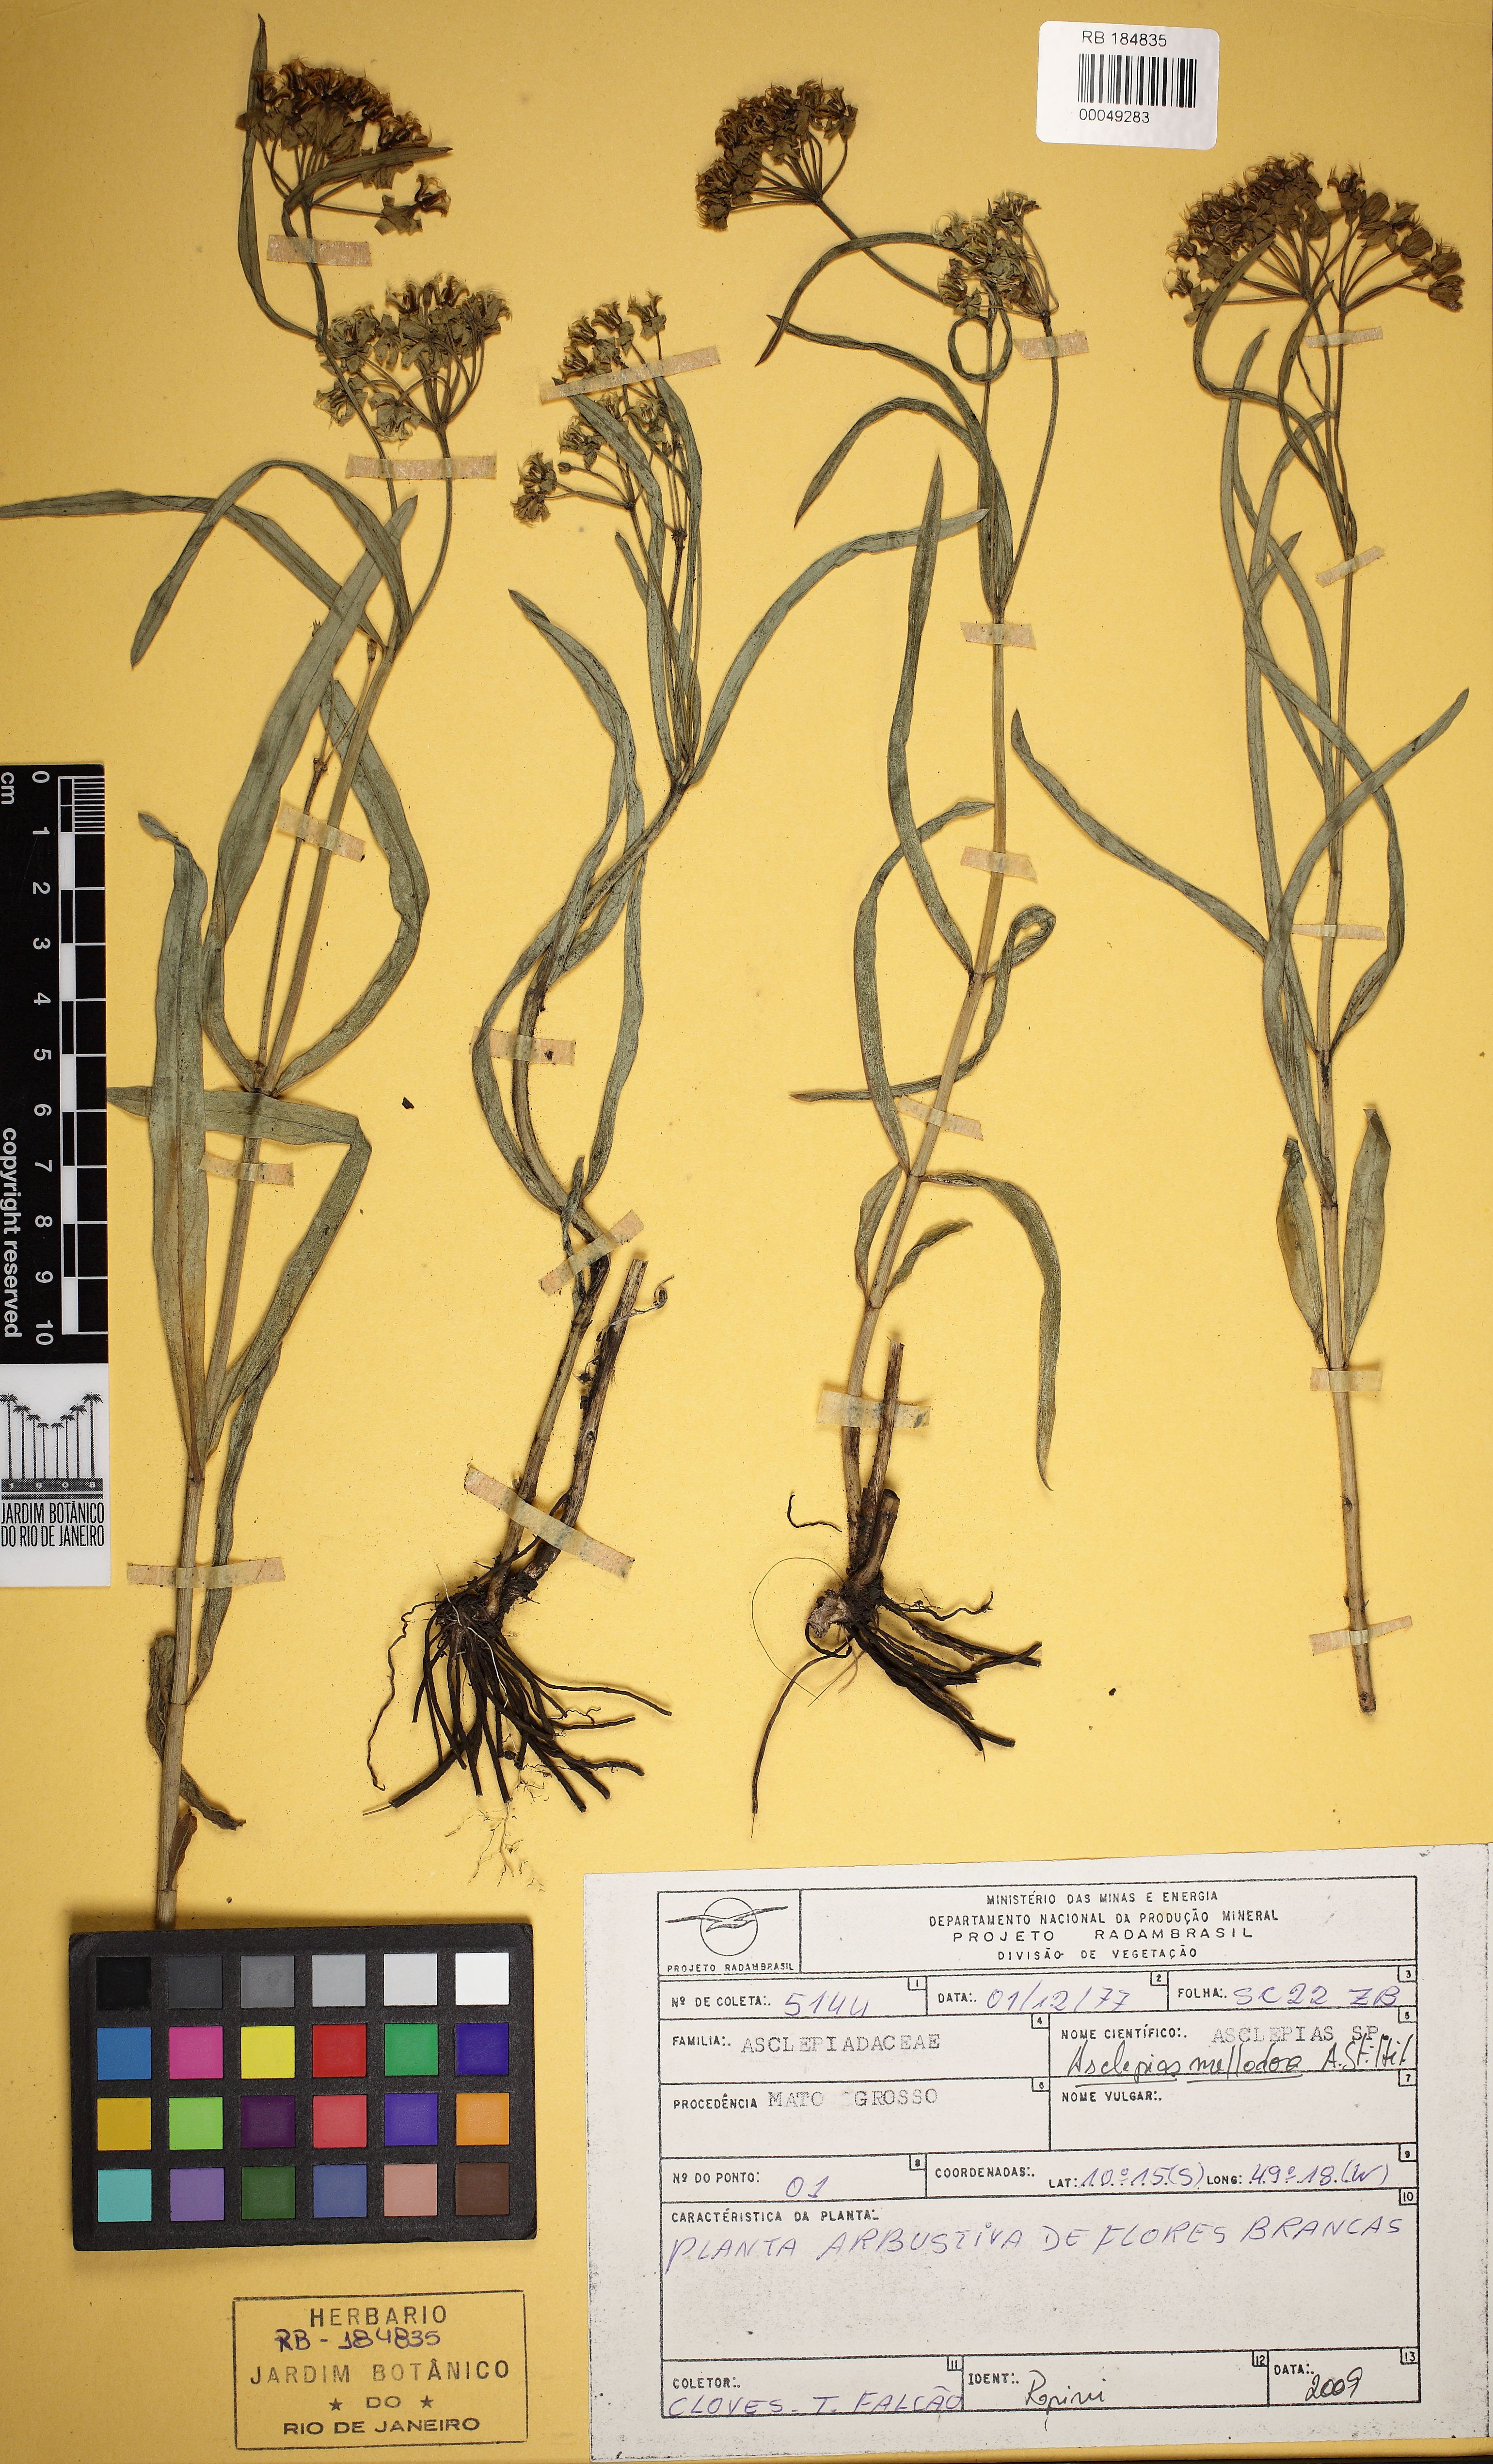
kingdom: Plantae
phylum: Tracheophyta
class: Magnoliopsida
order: Gentianales
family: Apocynaceae
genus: Asclepias
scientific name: Asclepias mellodora
